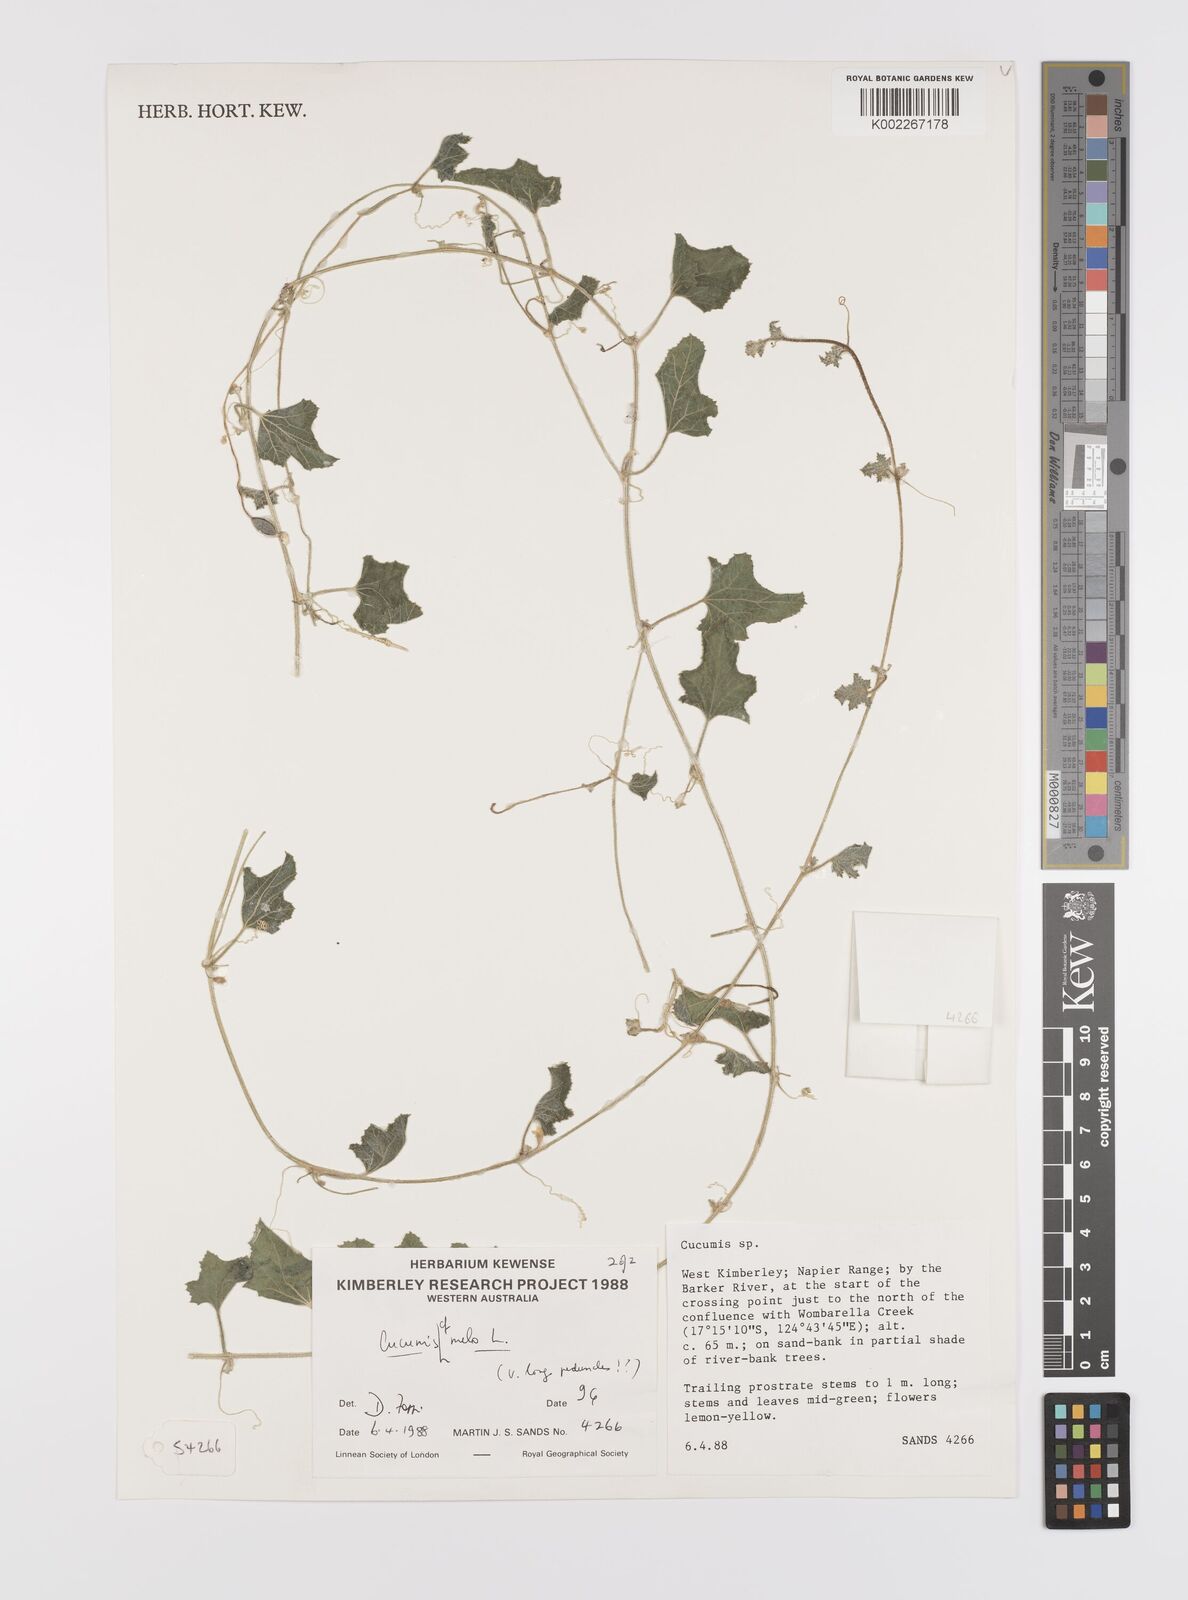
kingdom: Plantae
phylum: Tracheophyta
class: Magnoliopsida
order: Cucurbitales
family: Cucurbitaceae
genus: Cucumis
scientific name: Cucumis melo
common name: Melon
